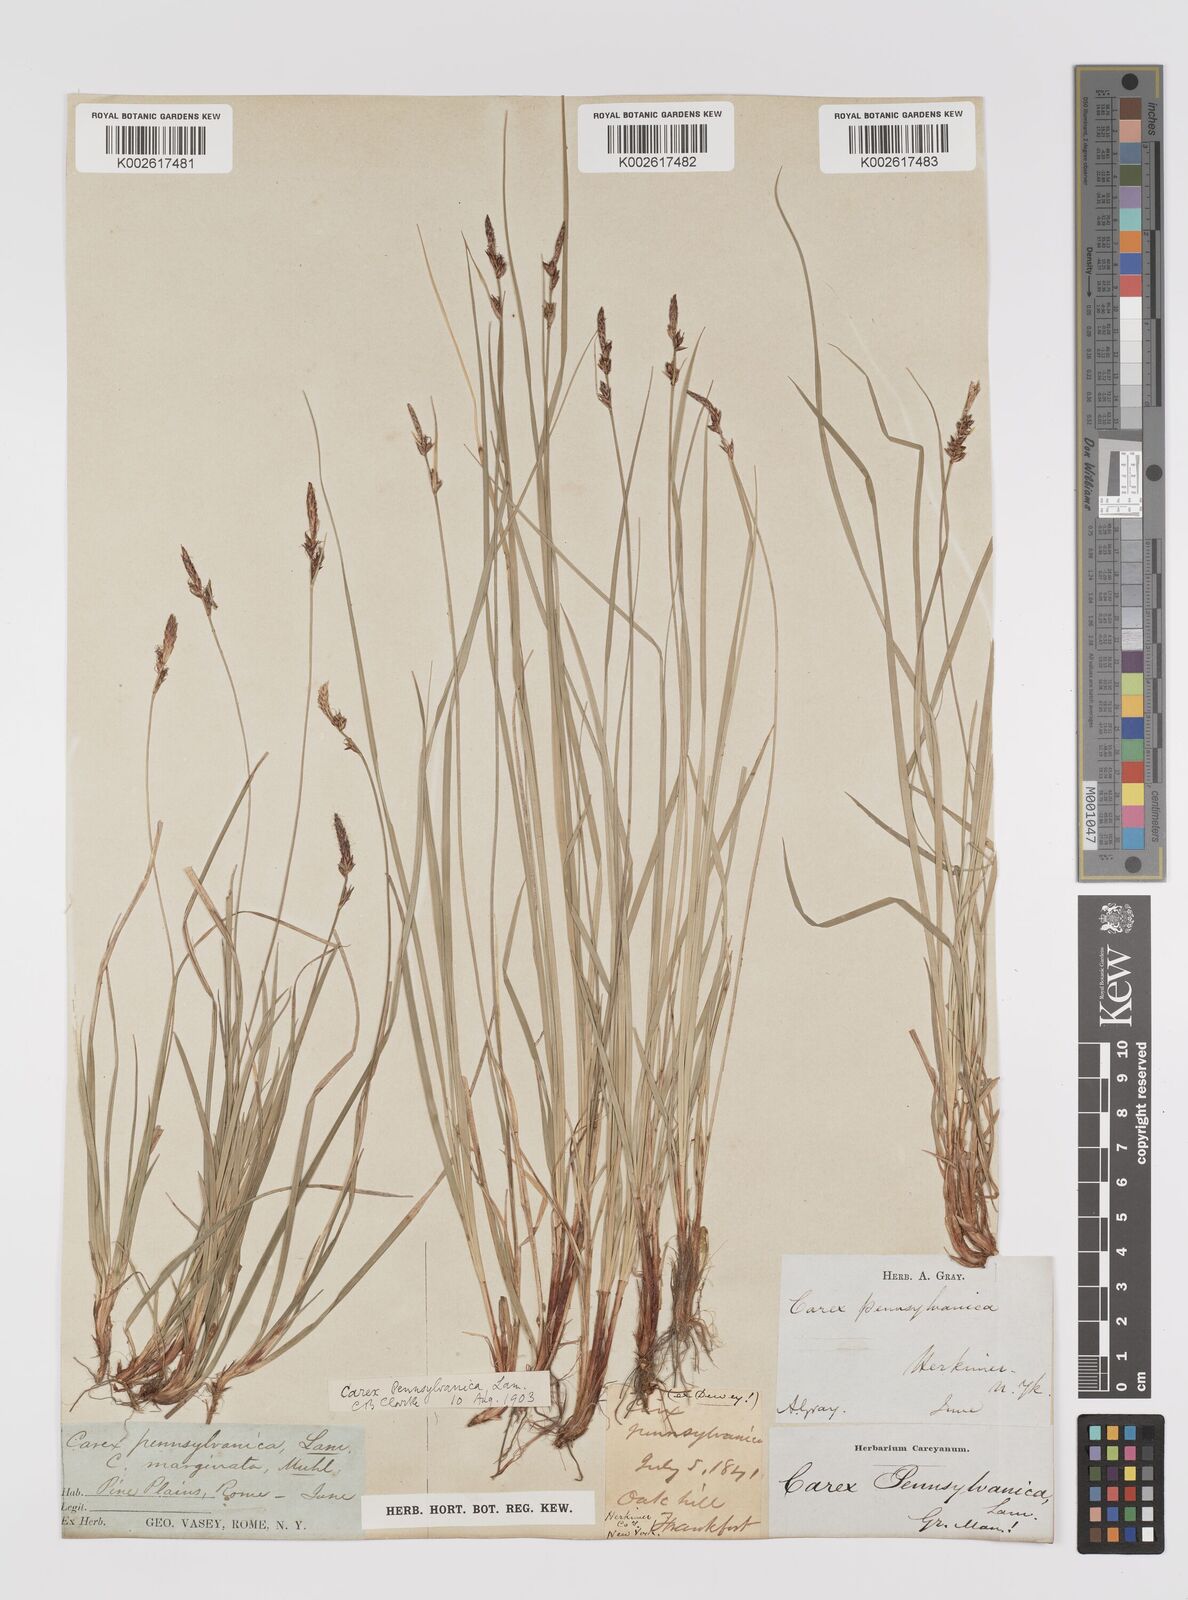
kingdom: Plantae
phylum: Tracheophyta
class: Liliopsida
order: Poales
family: Cyperaceae
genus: Carex
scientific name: Carex pensylvanica
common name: Common oak sedge
